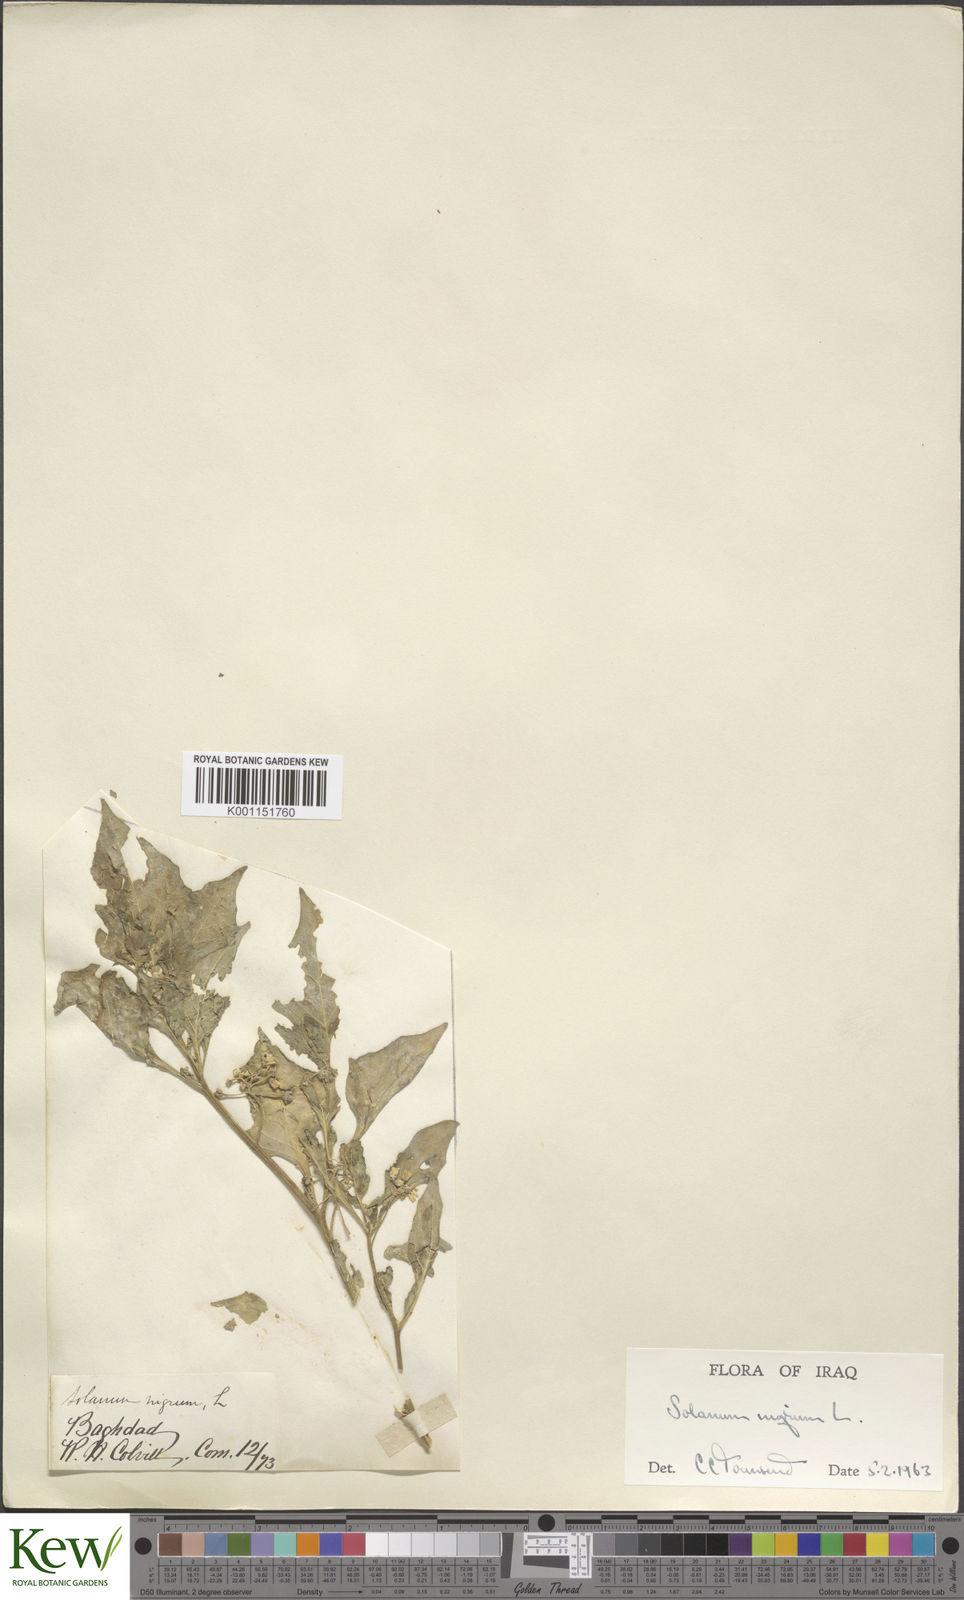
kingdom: Plantae
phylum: Tracheophyta
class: Magnoliopsida
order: Solanales
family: Solanaceae
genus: Solanum
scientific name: Solanum nigrum
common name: Black nightshade
